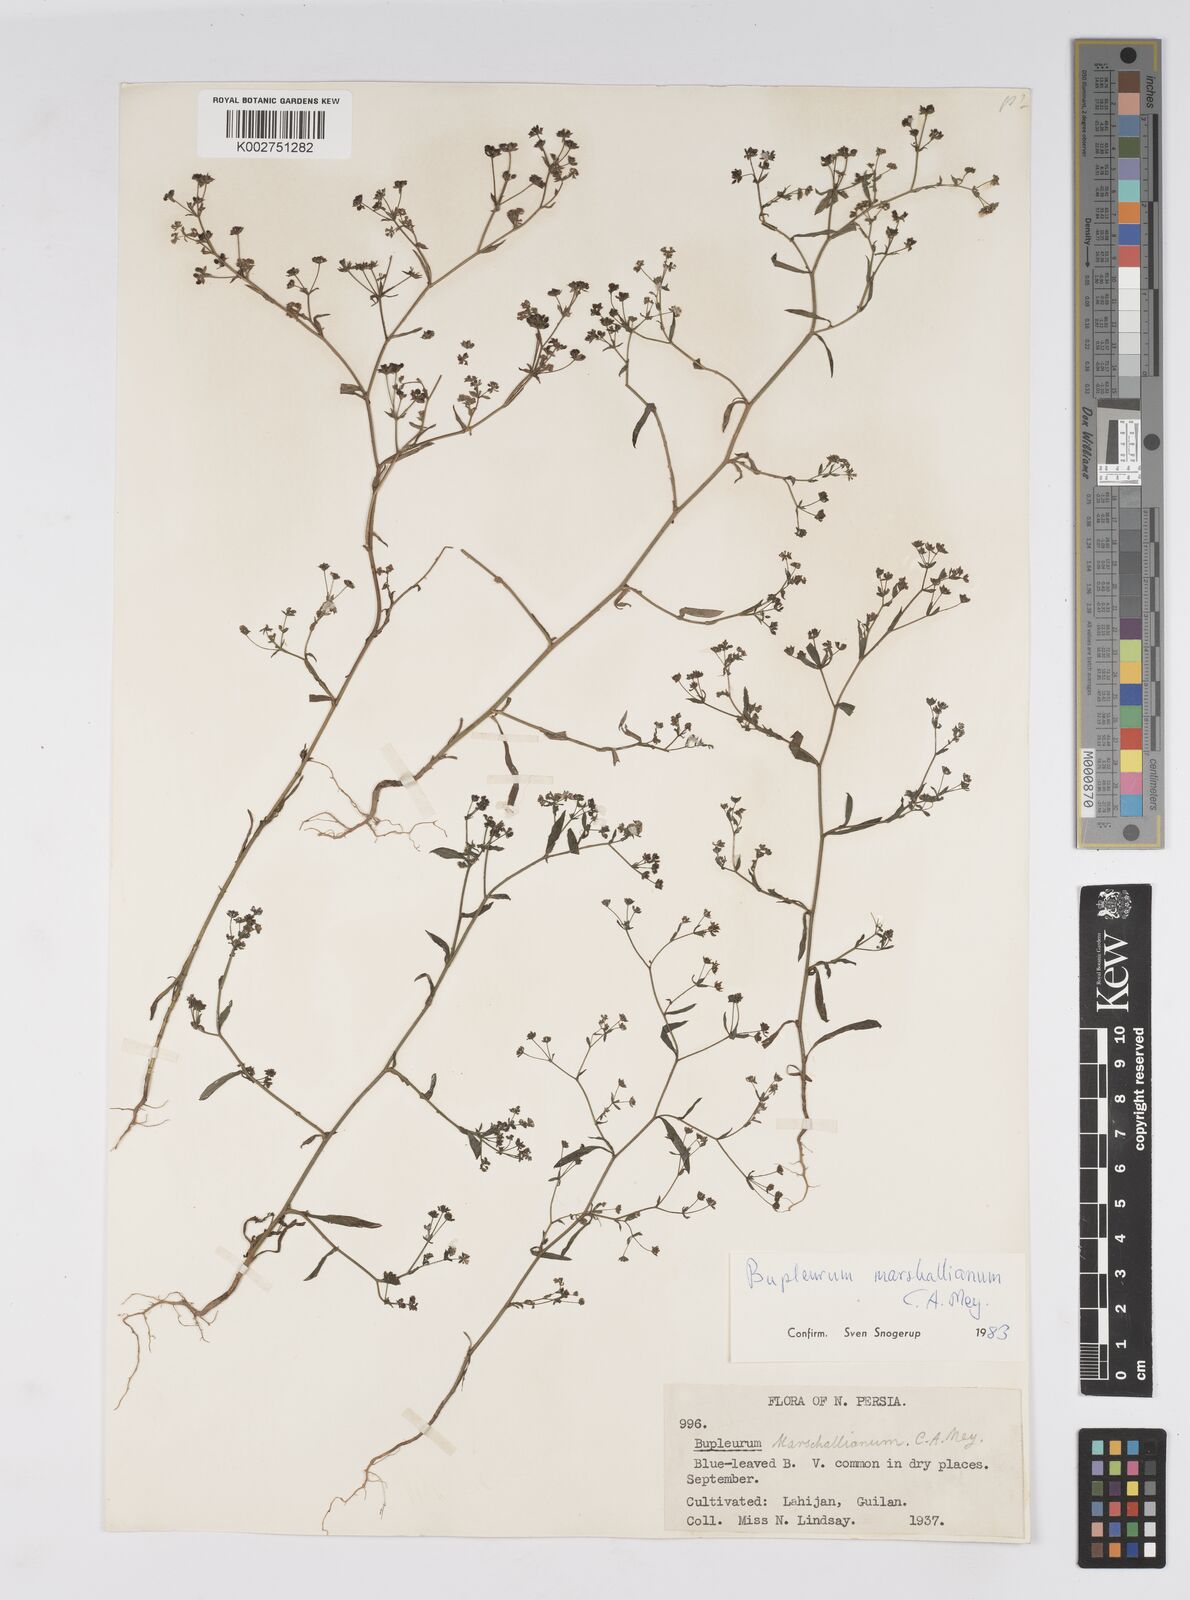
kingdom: Plantae
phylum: Tracheophyta
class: Magnoliopsida
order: Apiales
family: Apiaceae
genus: Bupleurum
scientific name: Bupleurum marschallianum
